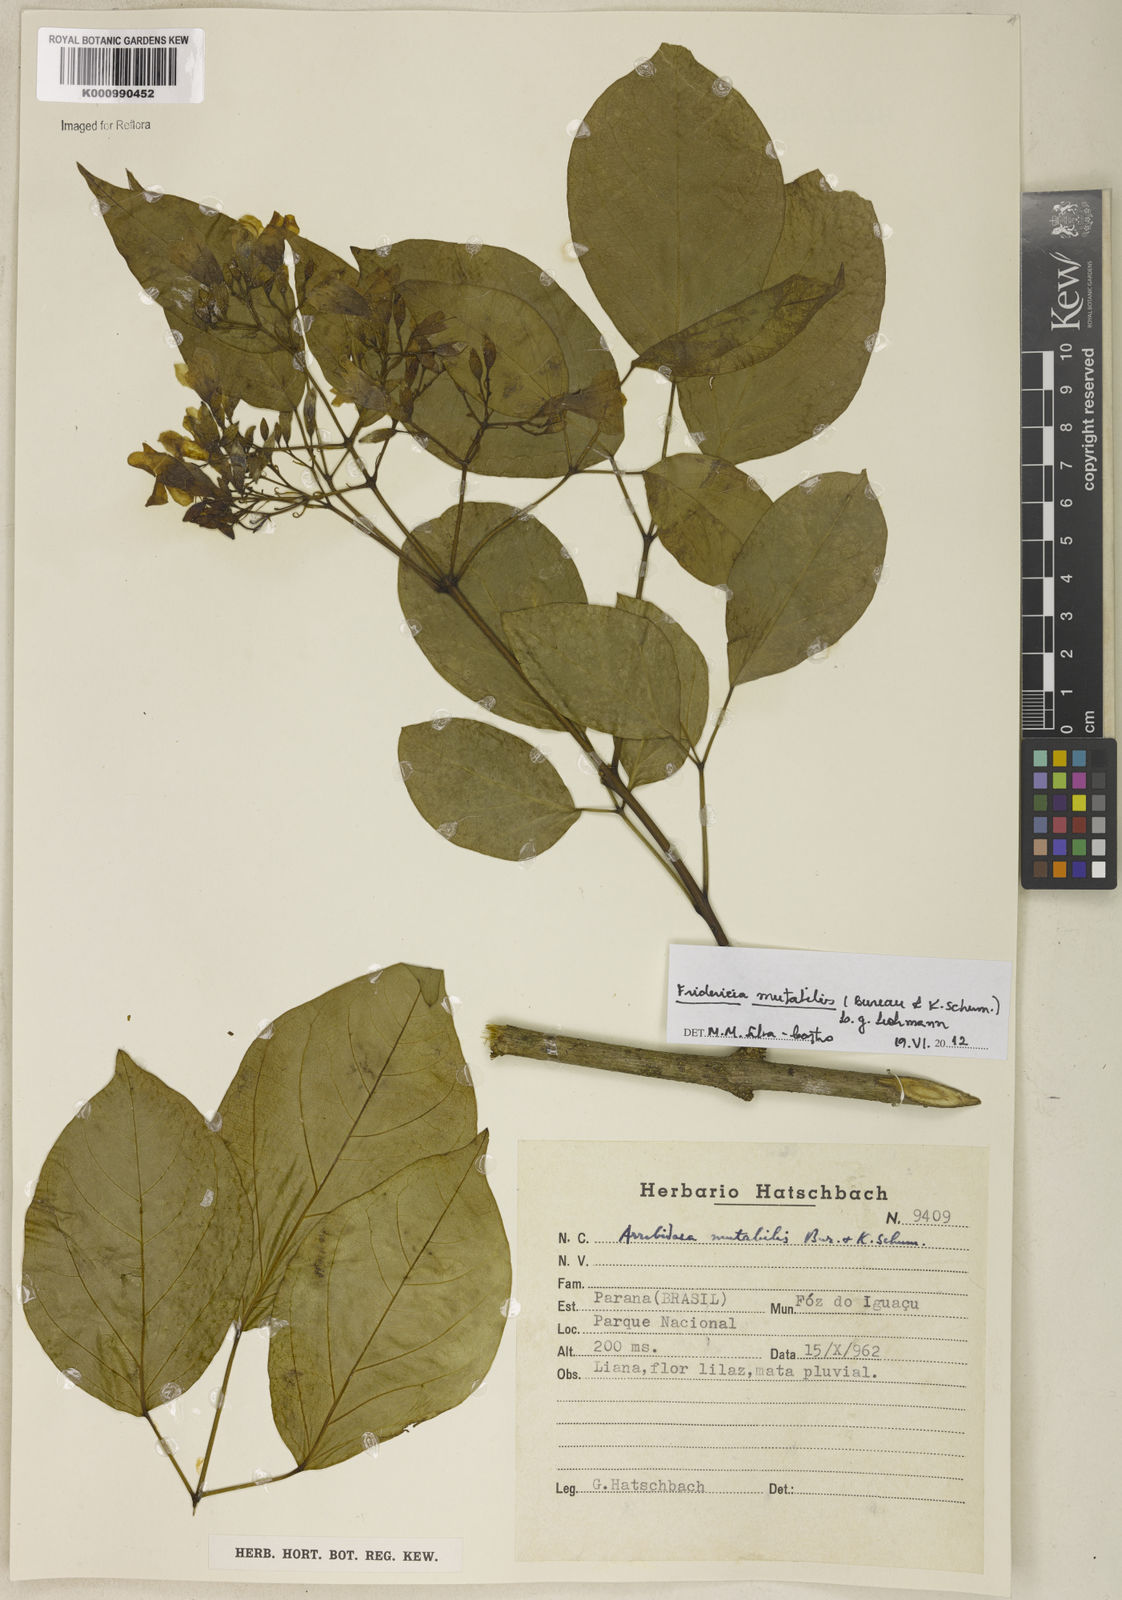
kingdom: Plantae
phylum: Tracheophyta
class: Magnoliopsida
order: Lamiales
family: Bignoniaceae
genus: Fridericia
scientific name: Fridericia
